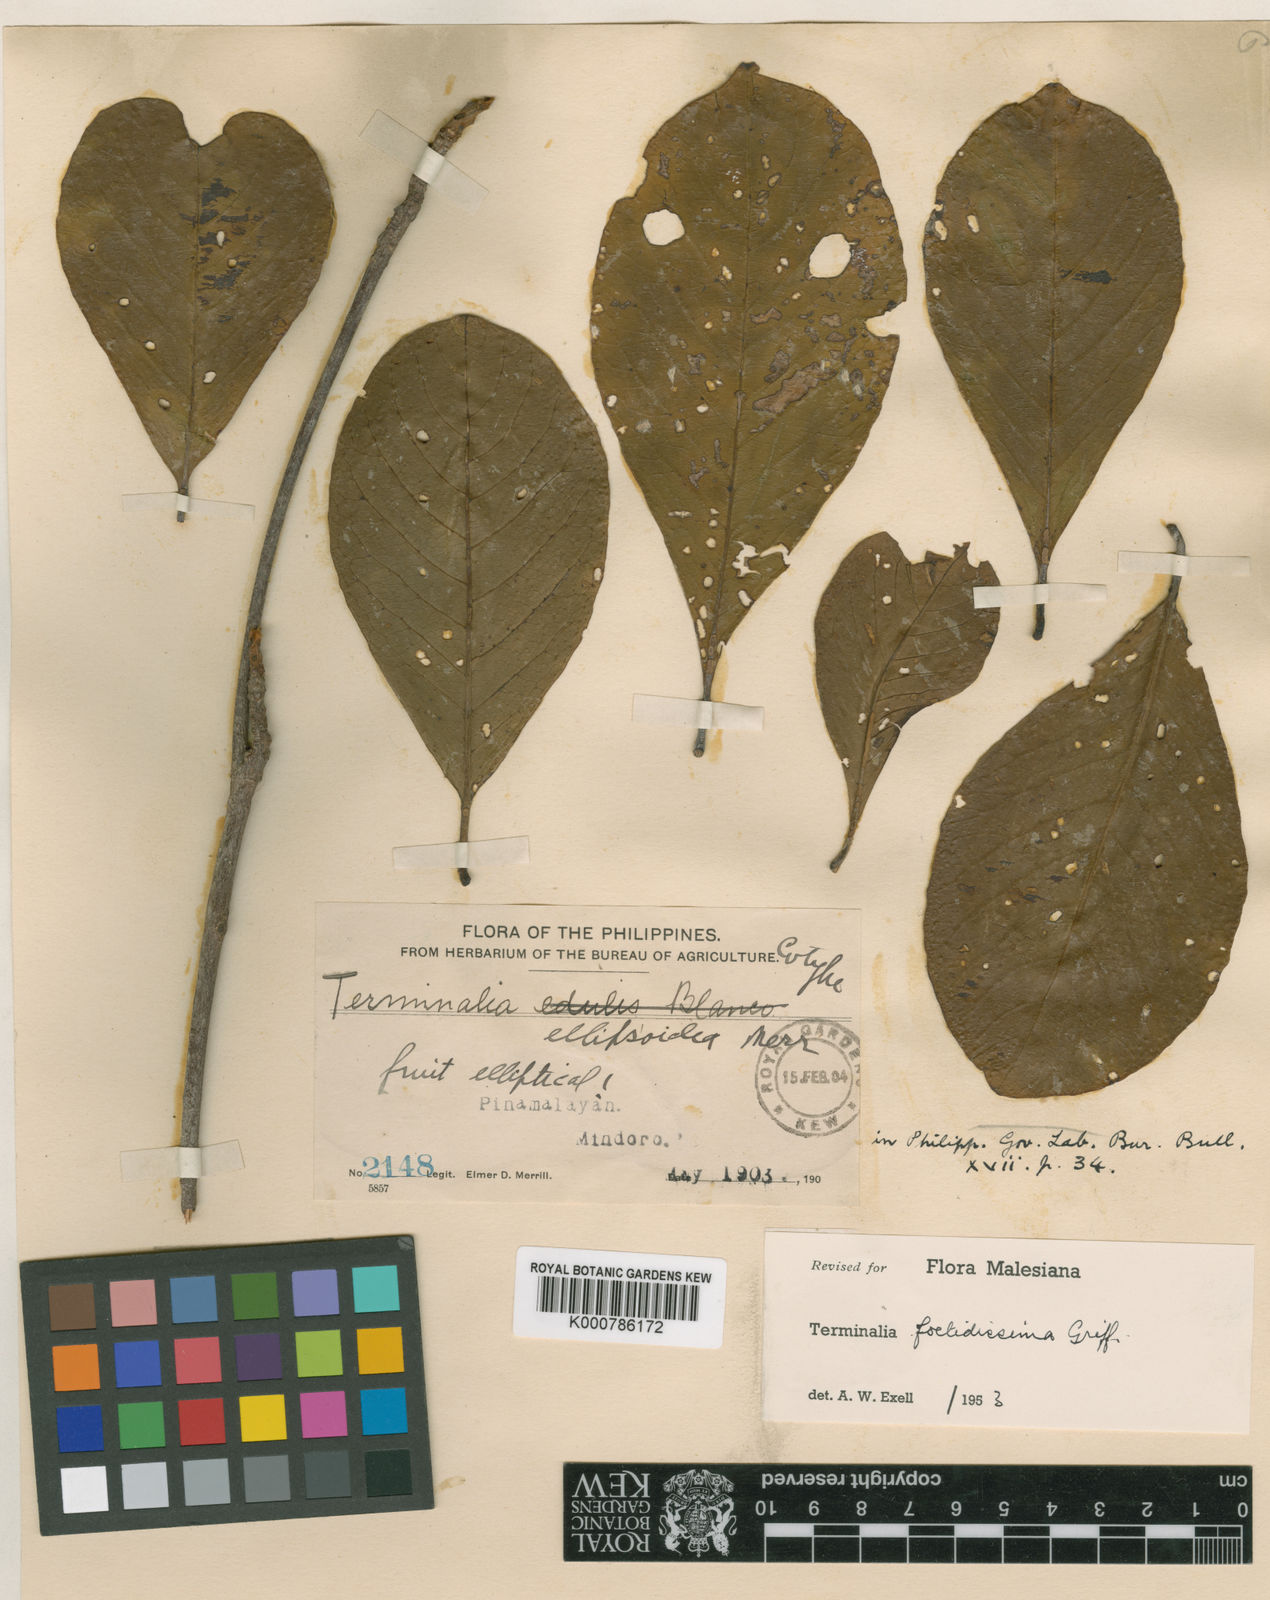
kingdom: Plantae
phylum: Tracheophyta
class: Magnoliopsida
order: Myrtales
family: Combretaceae
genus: Terminalia
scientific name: Terminalia foetidissima
